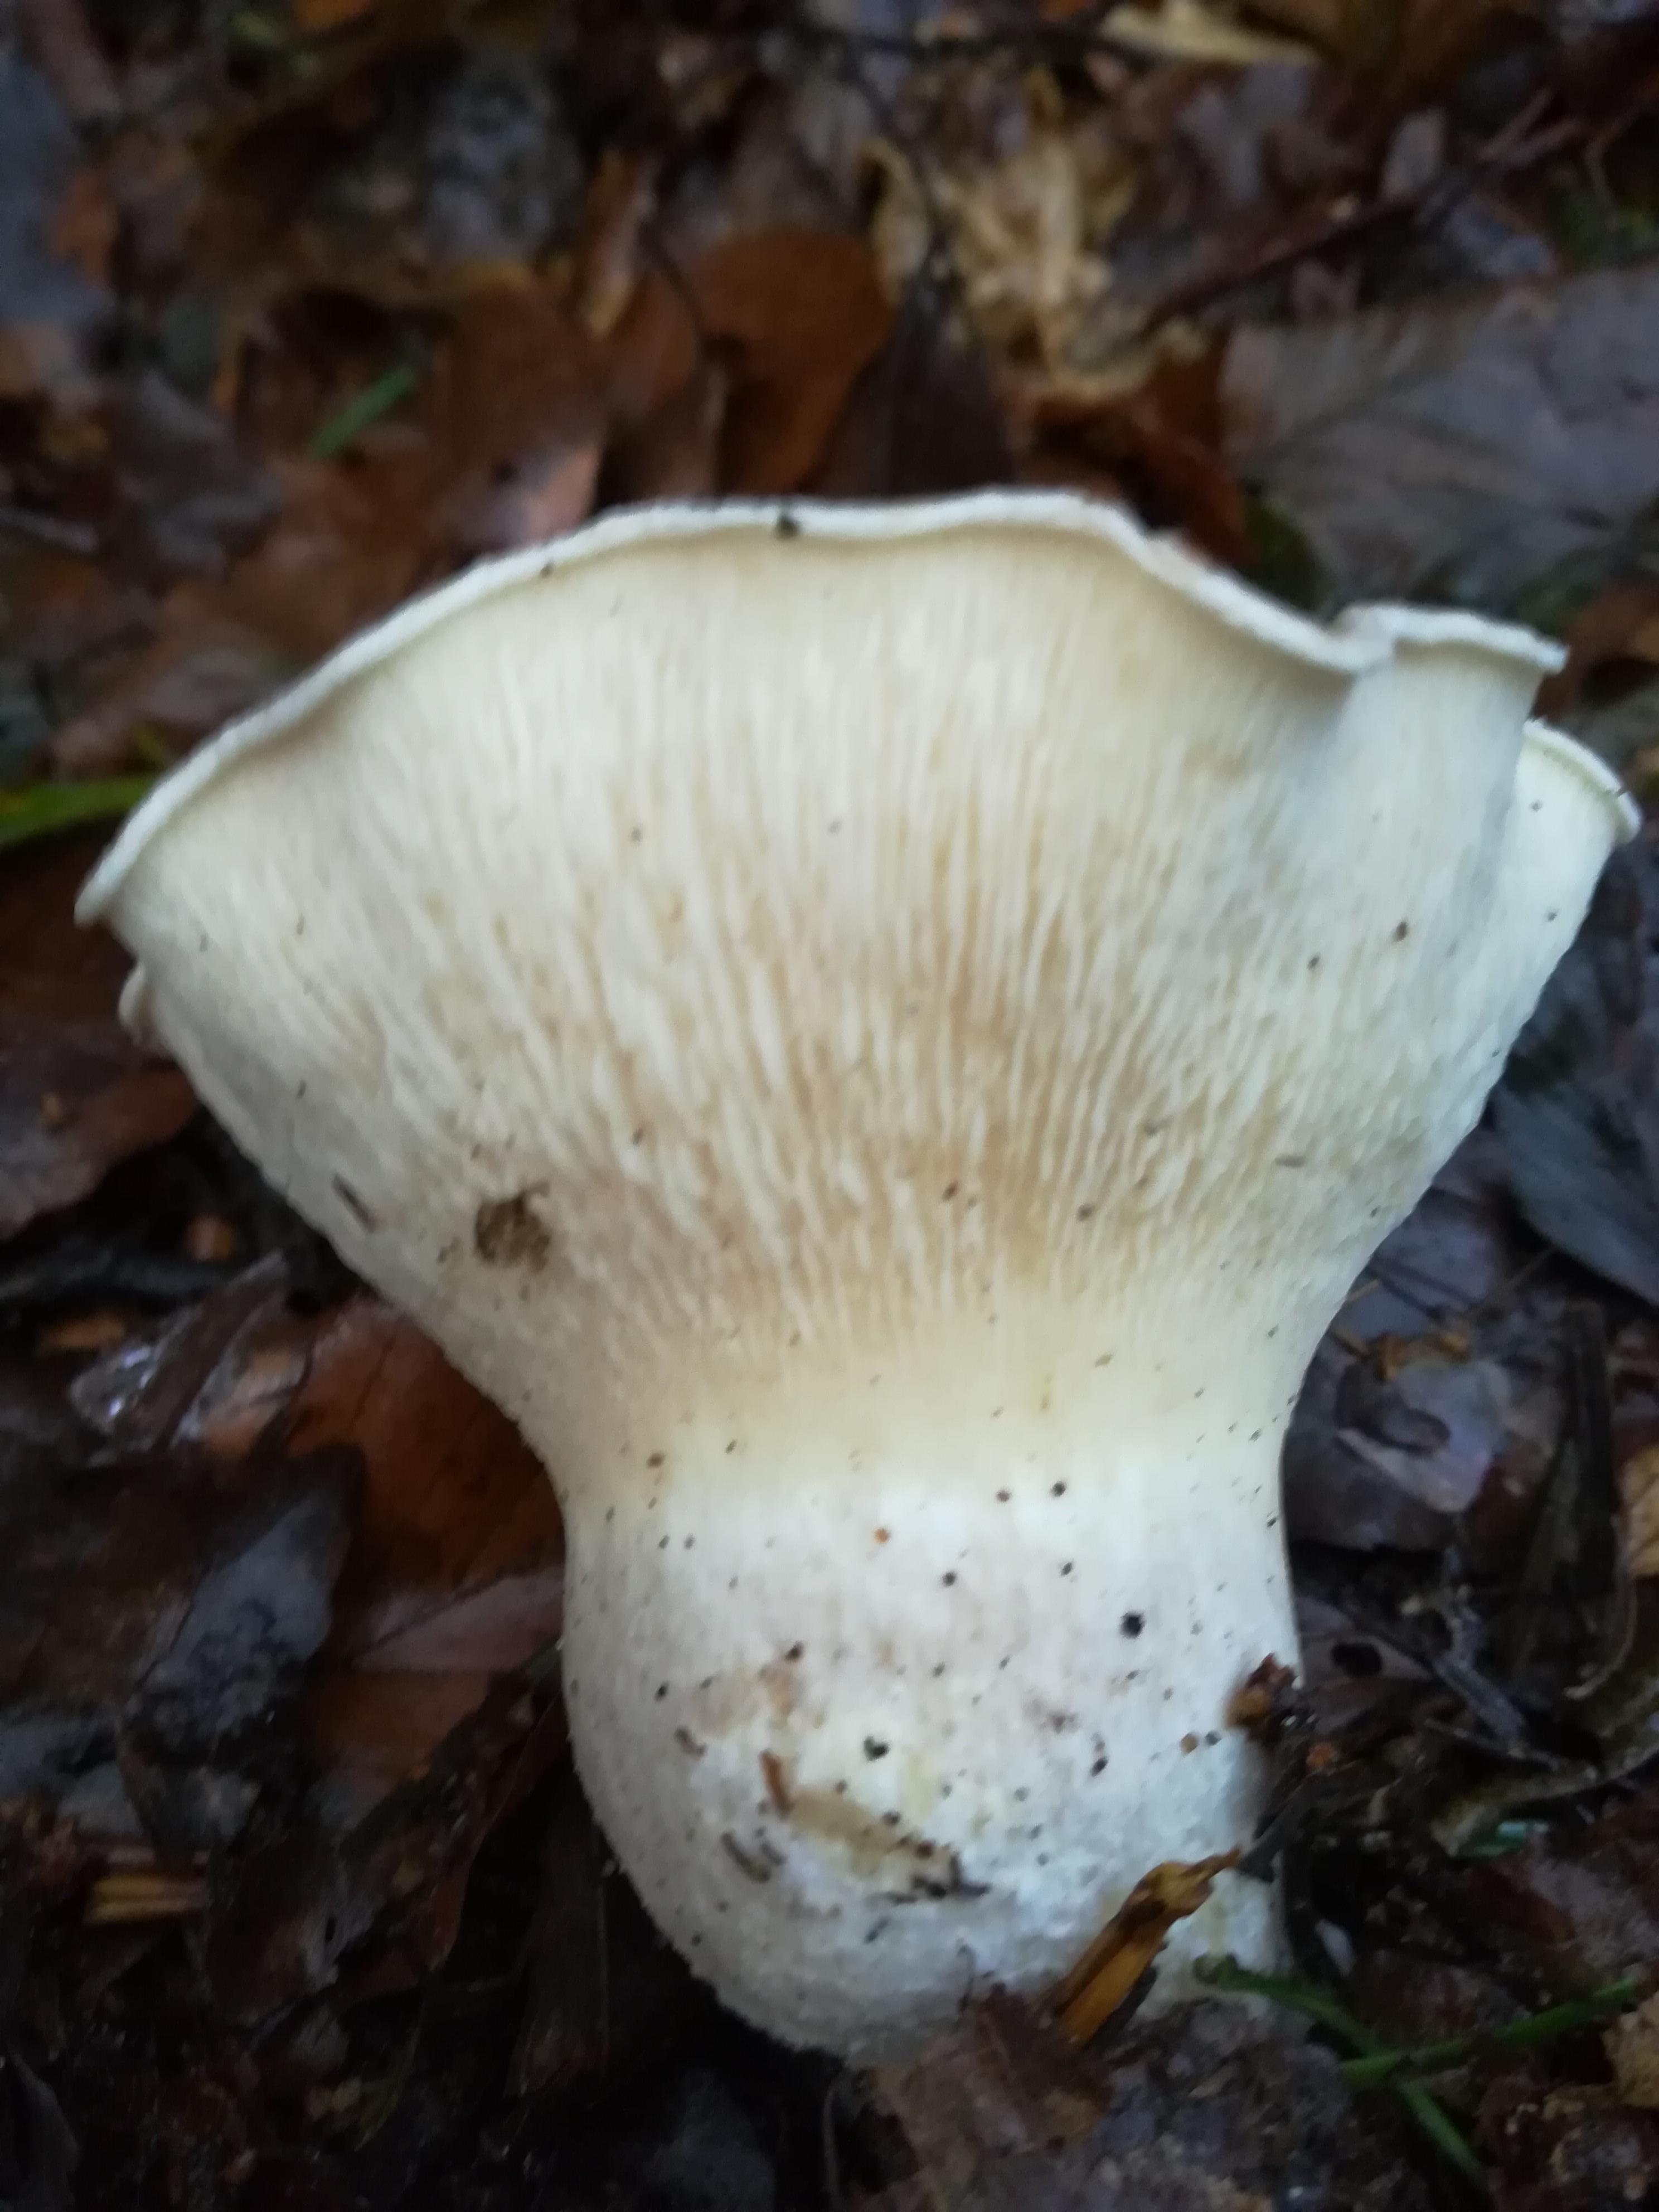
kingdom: Fungi
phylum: Basidiomycota
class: Agaricomycetes
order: Agaricales
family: Tricholomataceae
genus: Clitocybe
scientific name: Clitocybe nebularis
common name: tåge-tragthat
